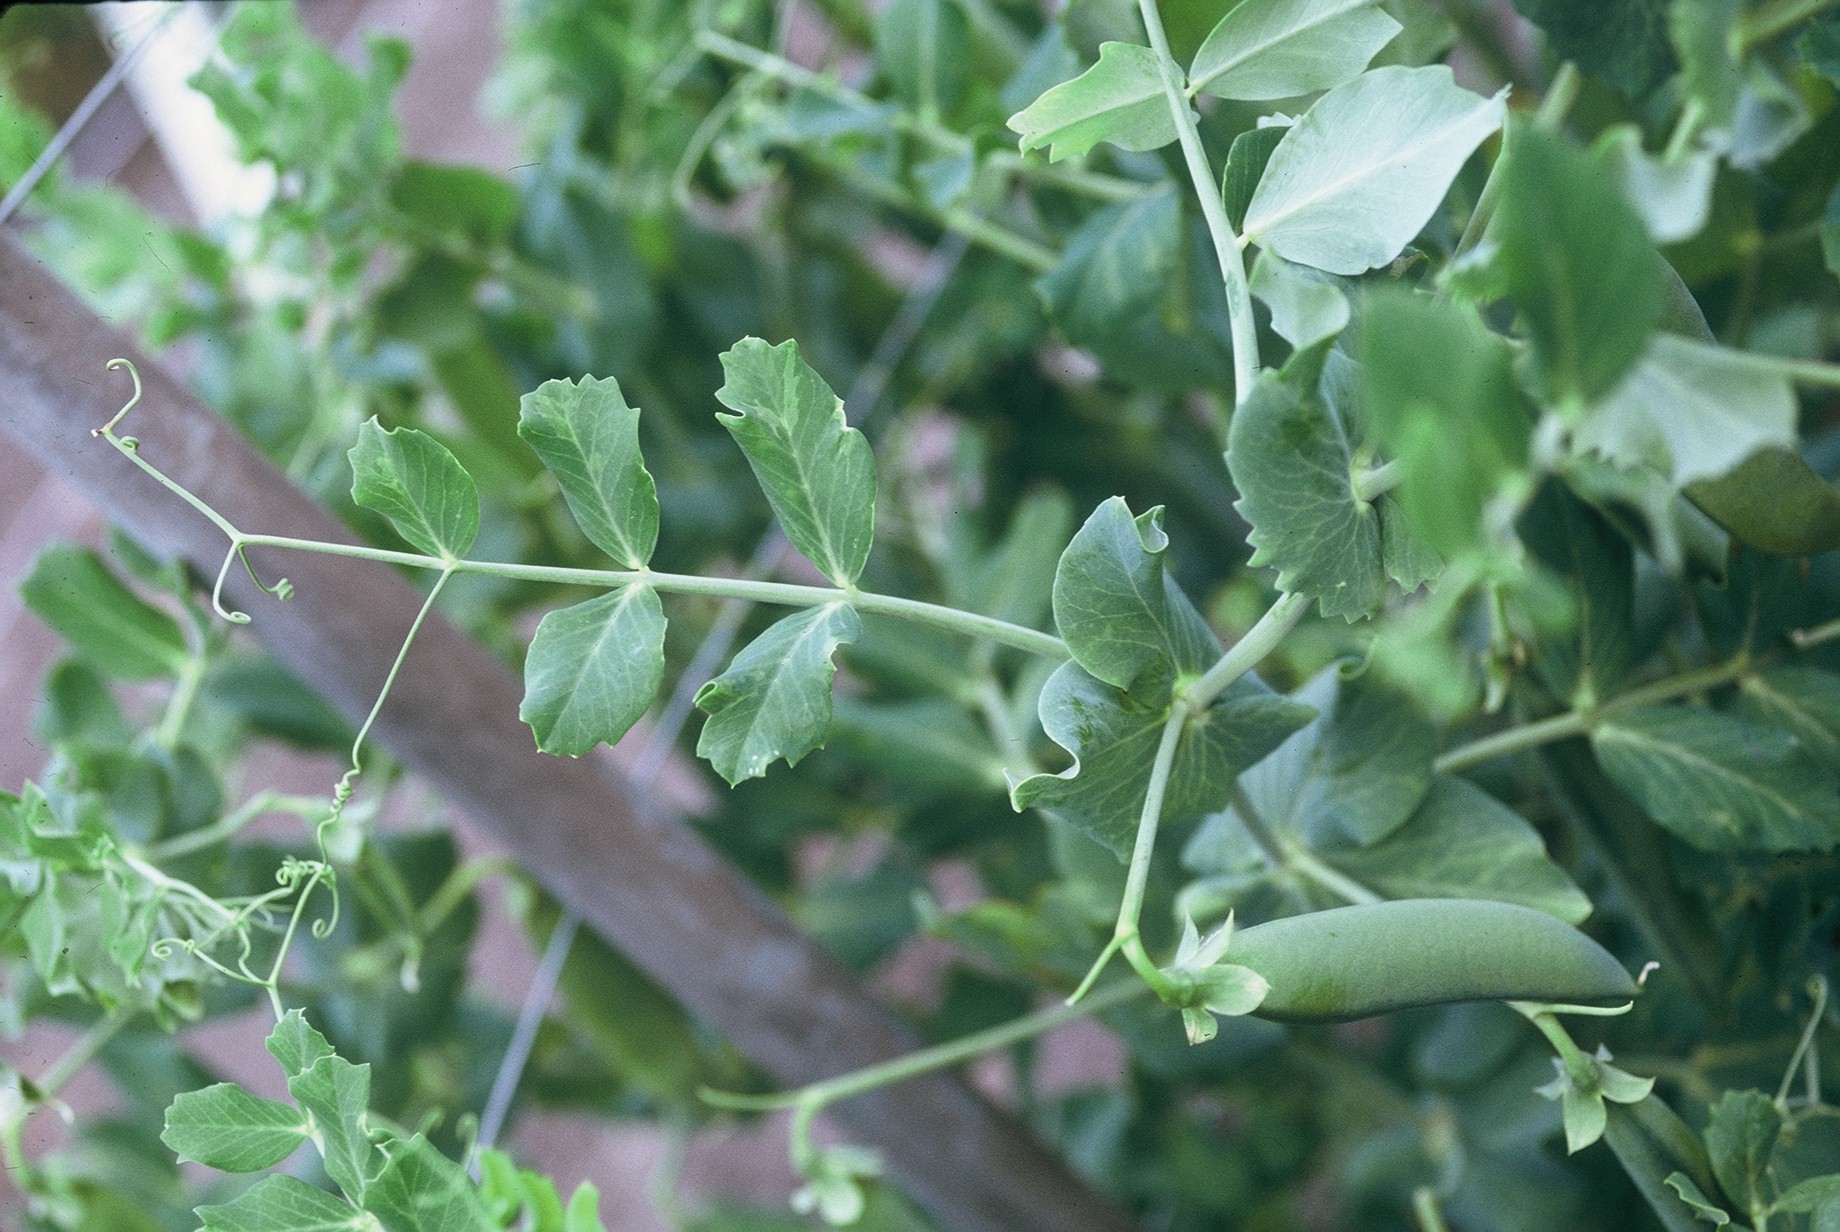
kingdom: Plantae
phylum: Tracheophyta
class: Magnoliopsida
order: Fabales
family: Fabaceae
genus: Lathyrus
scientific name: Lathyrus oleraceus
